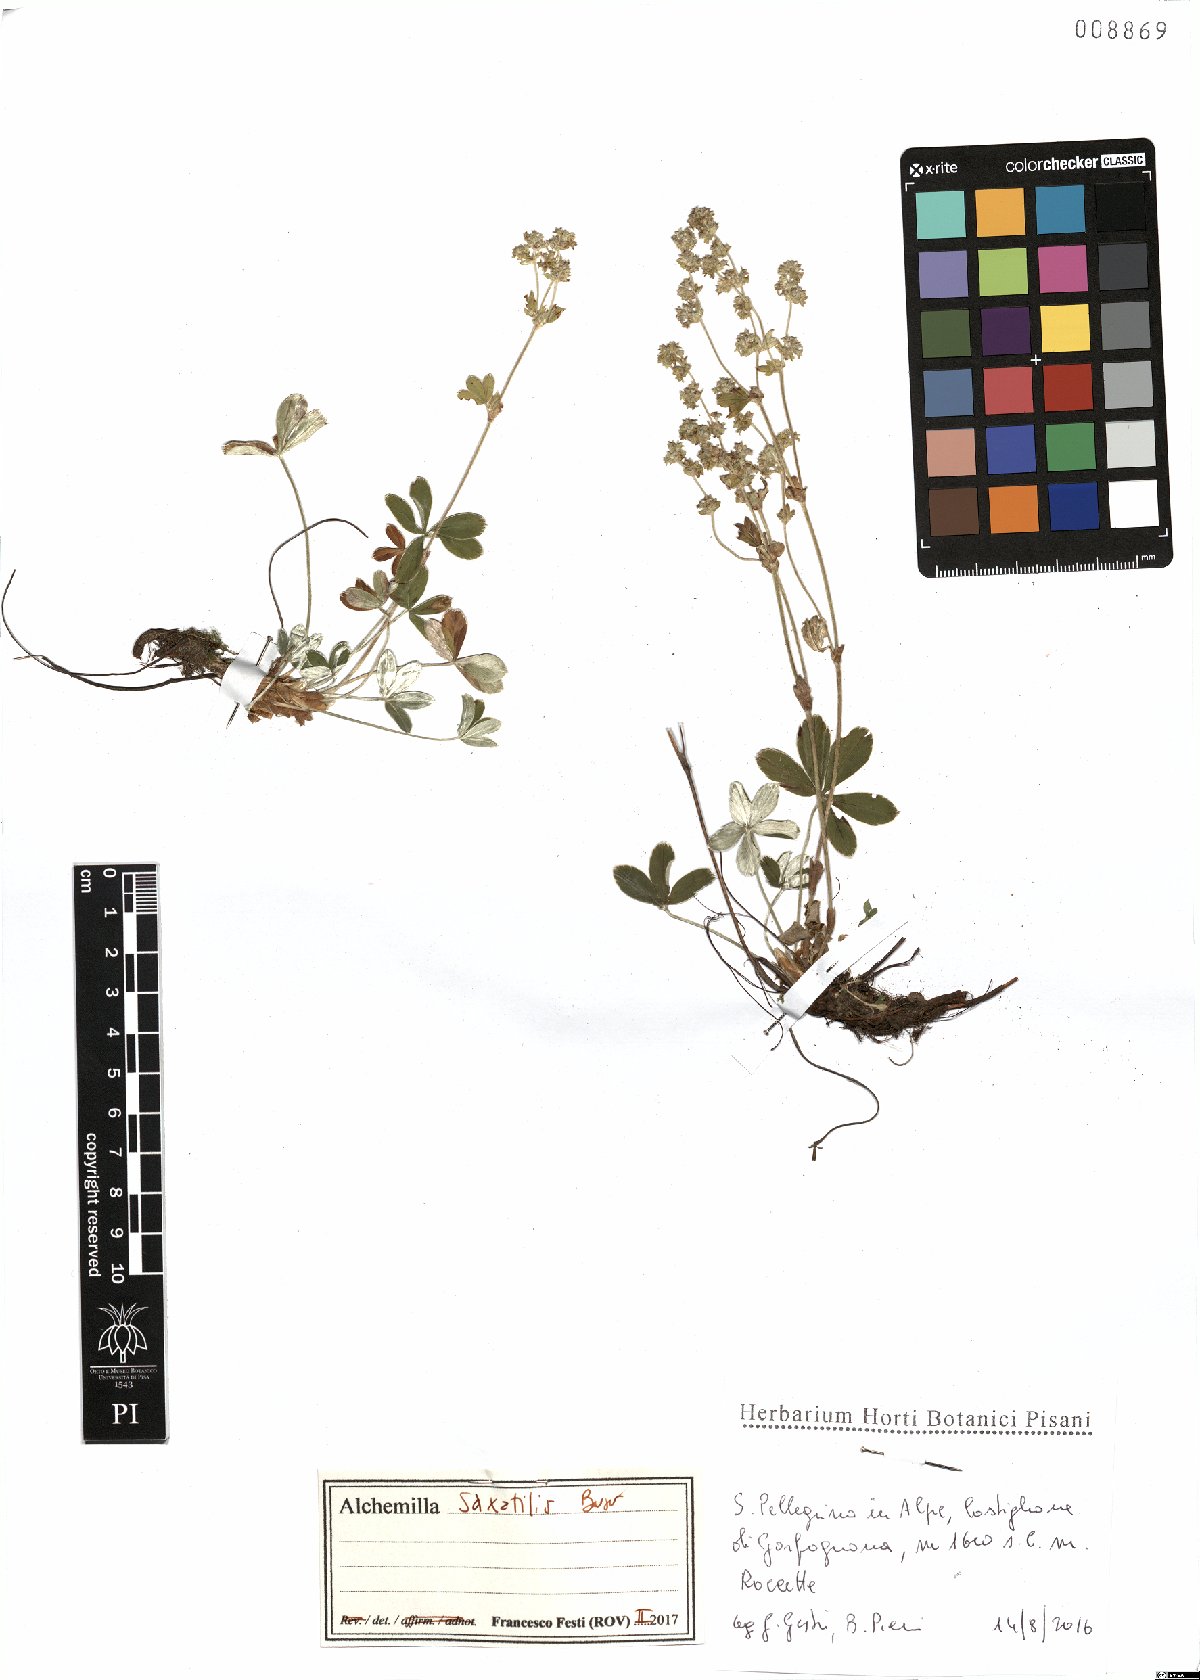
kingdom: Plantae
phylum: Tracheophyta
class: Magnoliopsida
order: Rosales
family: Rosaceae
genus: Alchemilla
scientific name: Alchemilla saxatilis
